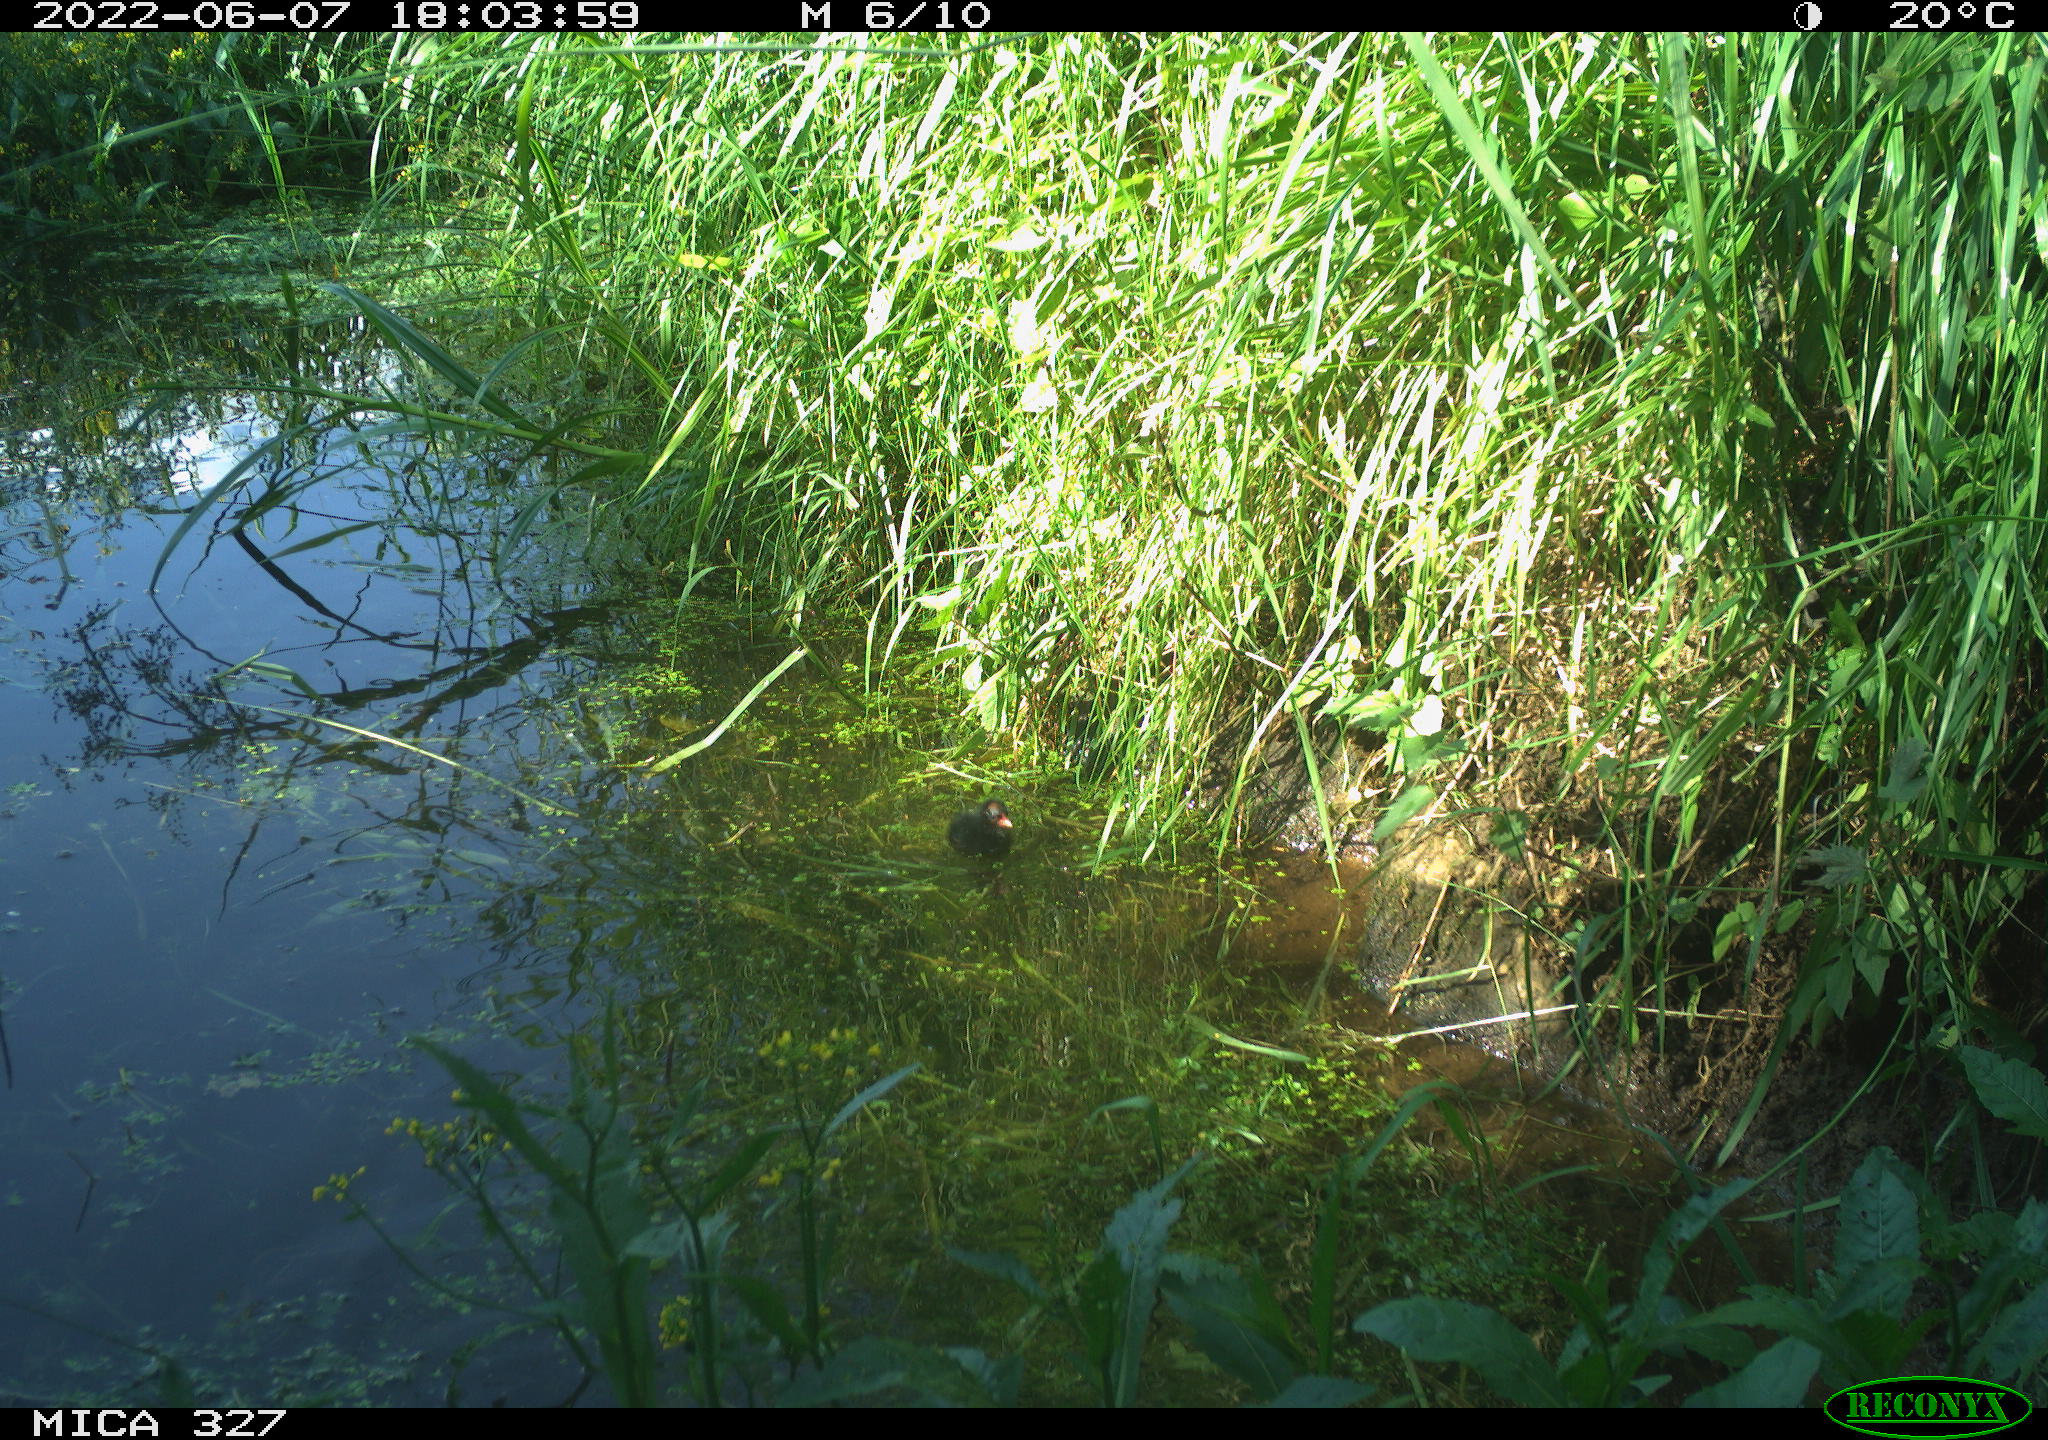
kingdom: Animalia
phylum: Chordata
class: Aves
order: Gruiformes
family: Rallidae
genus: Gallinula
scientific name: Gallinula chloropus
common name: Common moorhen
